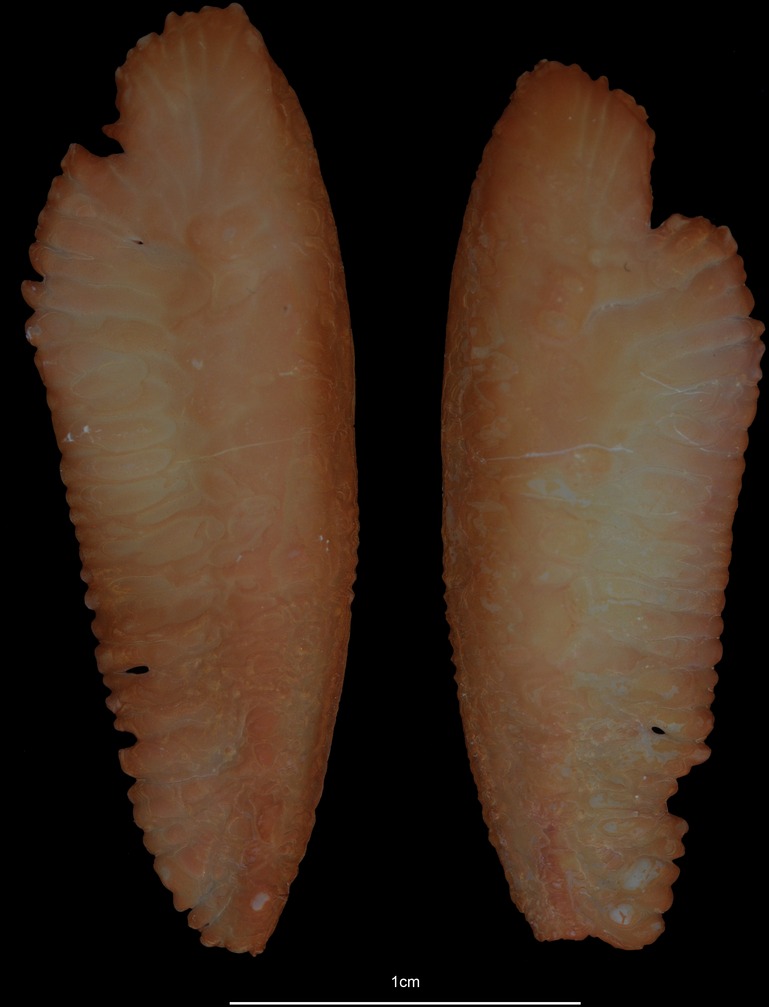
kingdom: Animalia
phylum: Chordata
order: Gadiformes
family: Merlucciidae
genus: Merluccius
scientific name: Merluccius merluccius
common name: European hake
